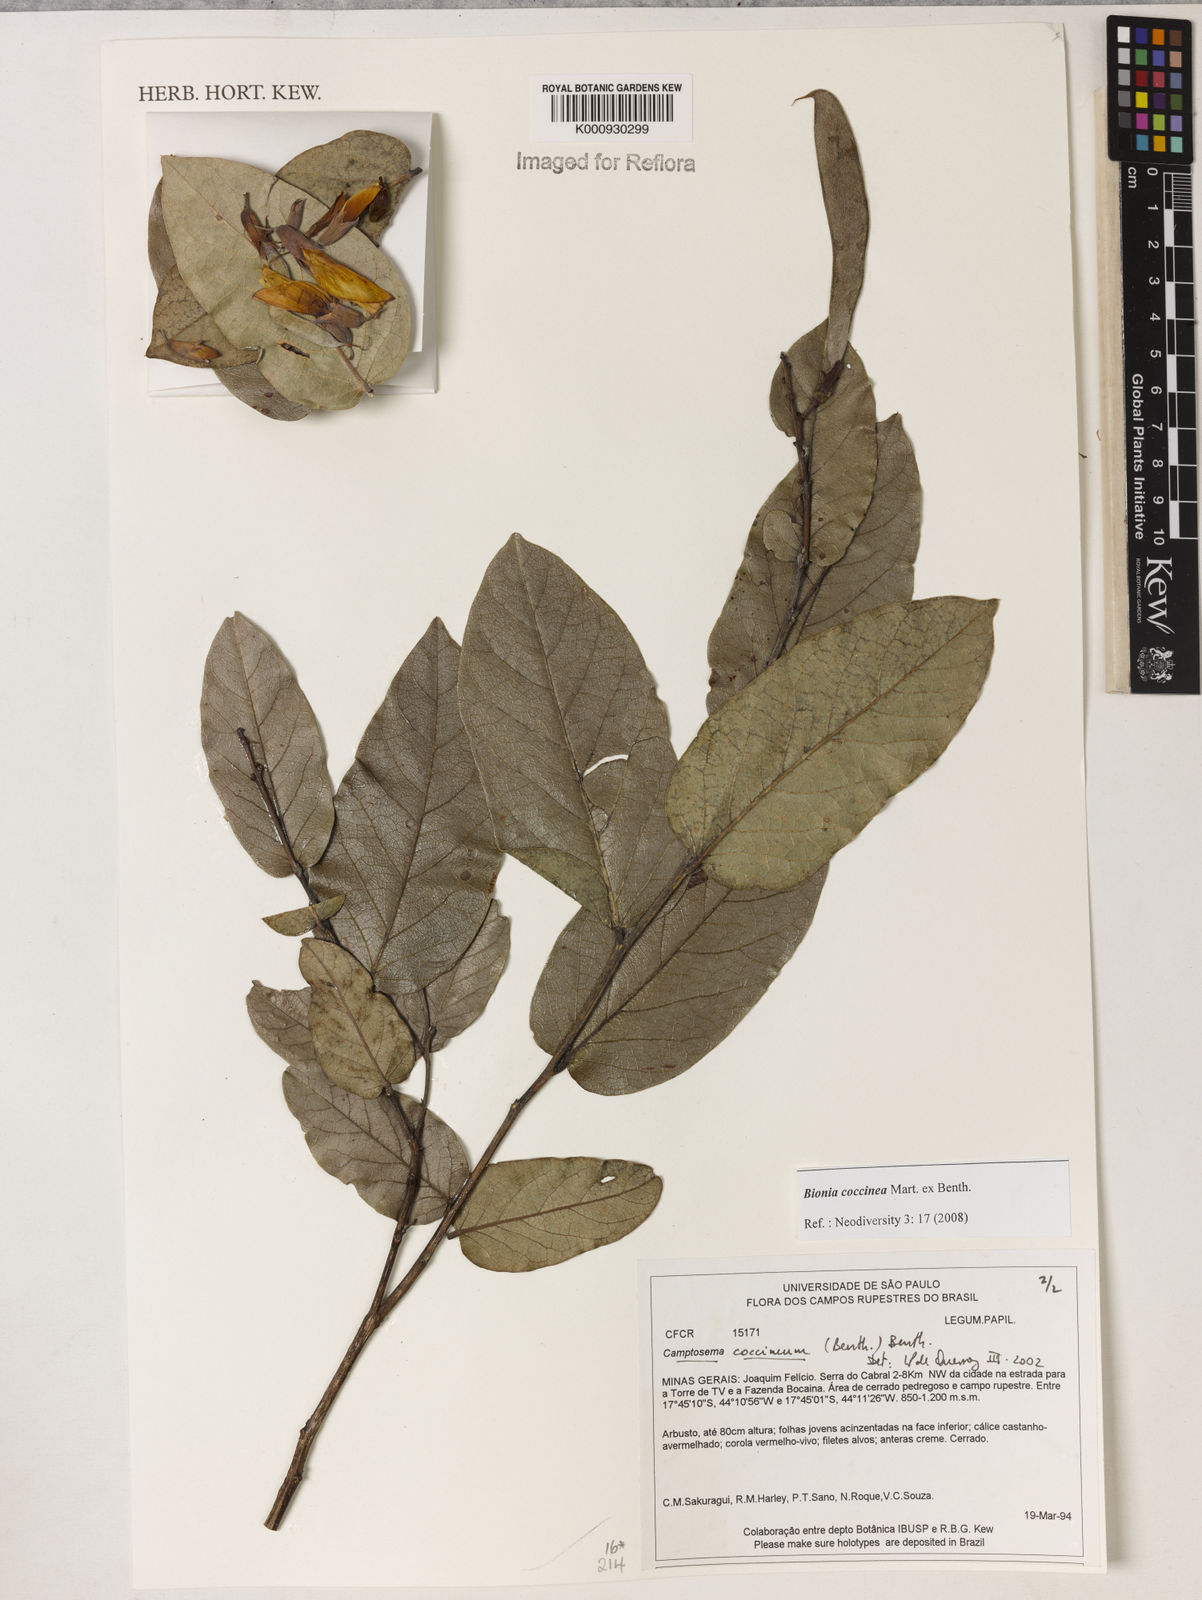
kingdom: Plantae
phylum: Tracheophyta
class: Magnoliopsida
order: Fabales
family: Fabaceae
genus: Camptosema
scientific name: Camptosema coccineum
